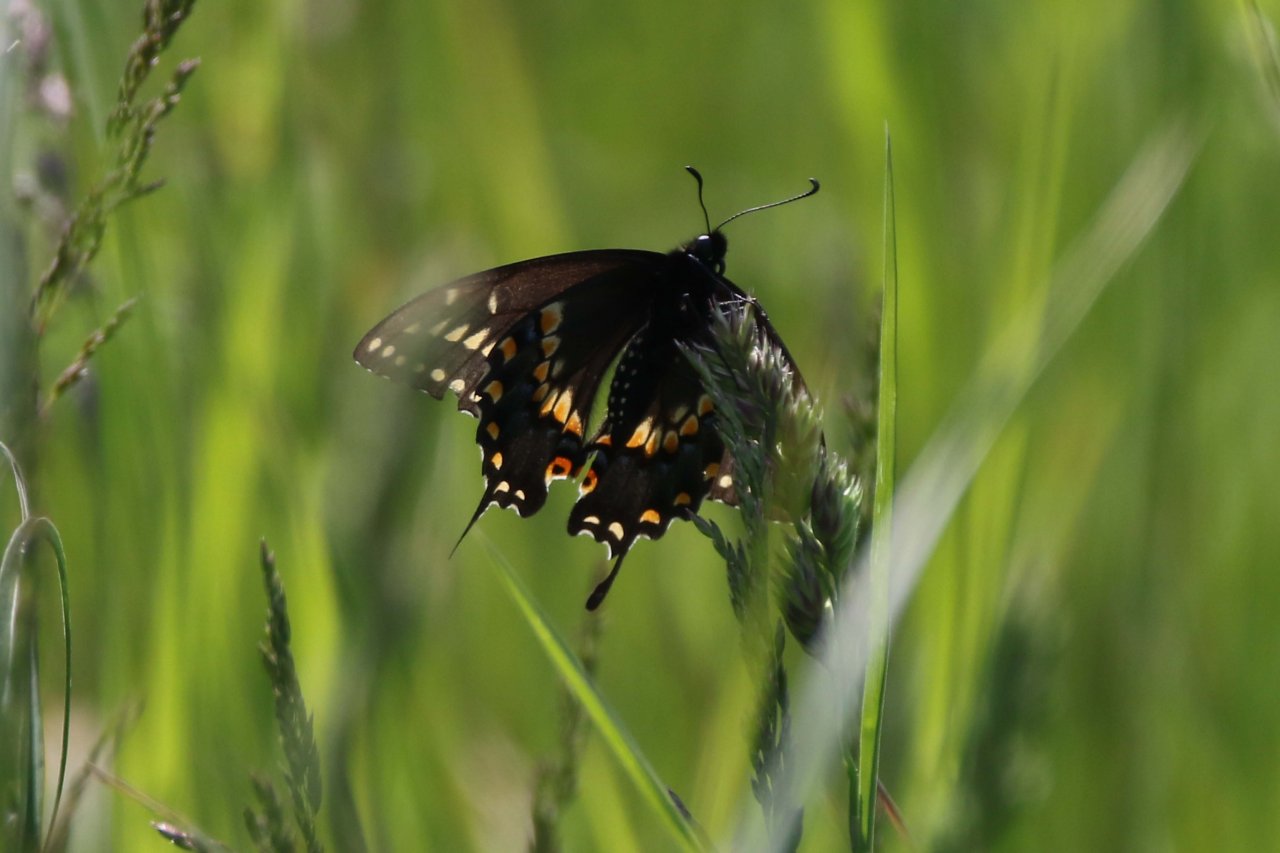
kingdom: Animalia
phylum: Arthropoda
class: Insecta
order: Lepidoptera
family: Papilionidae
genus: Papilio
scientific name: Papilio polyxenes
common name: Black Swallowtail
